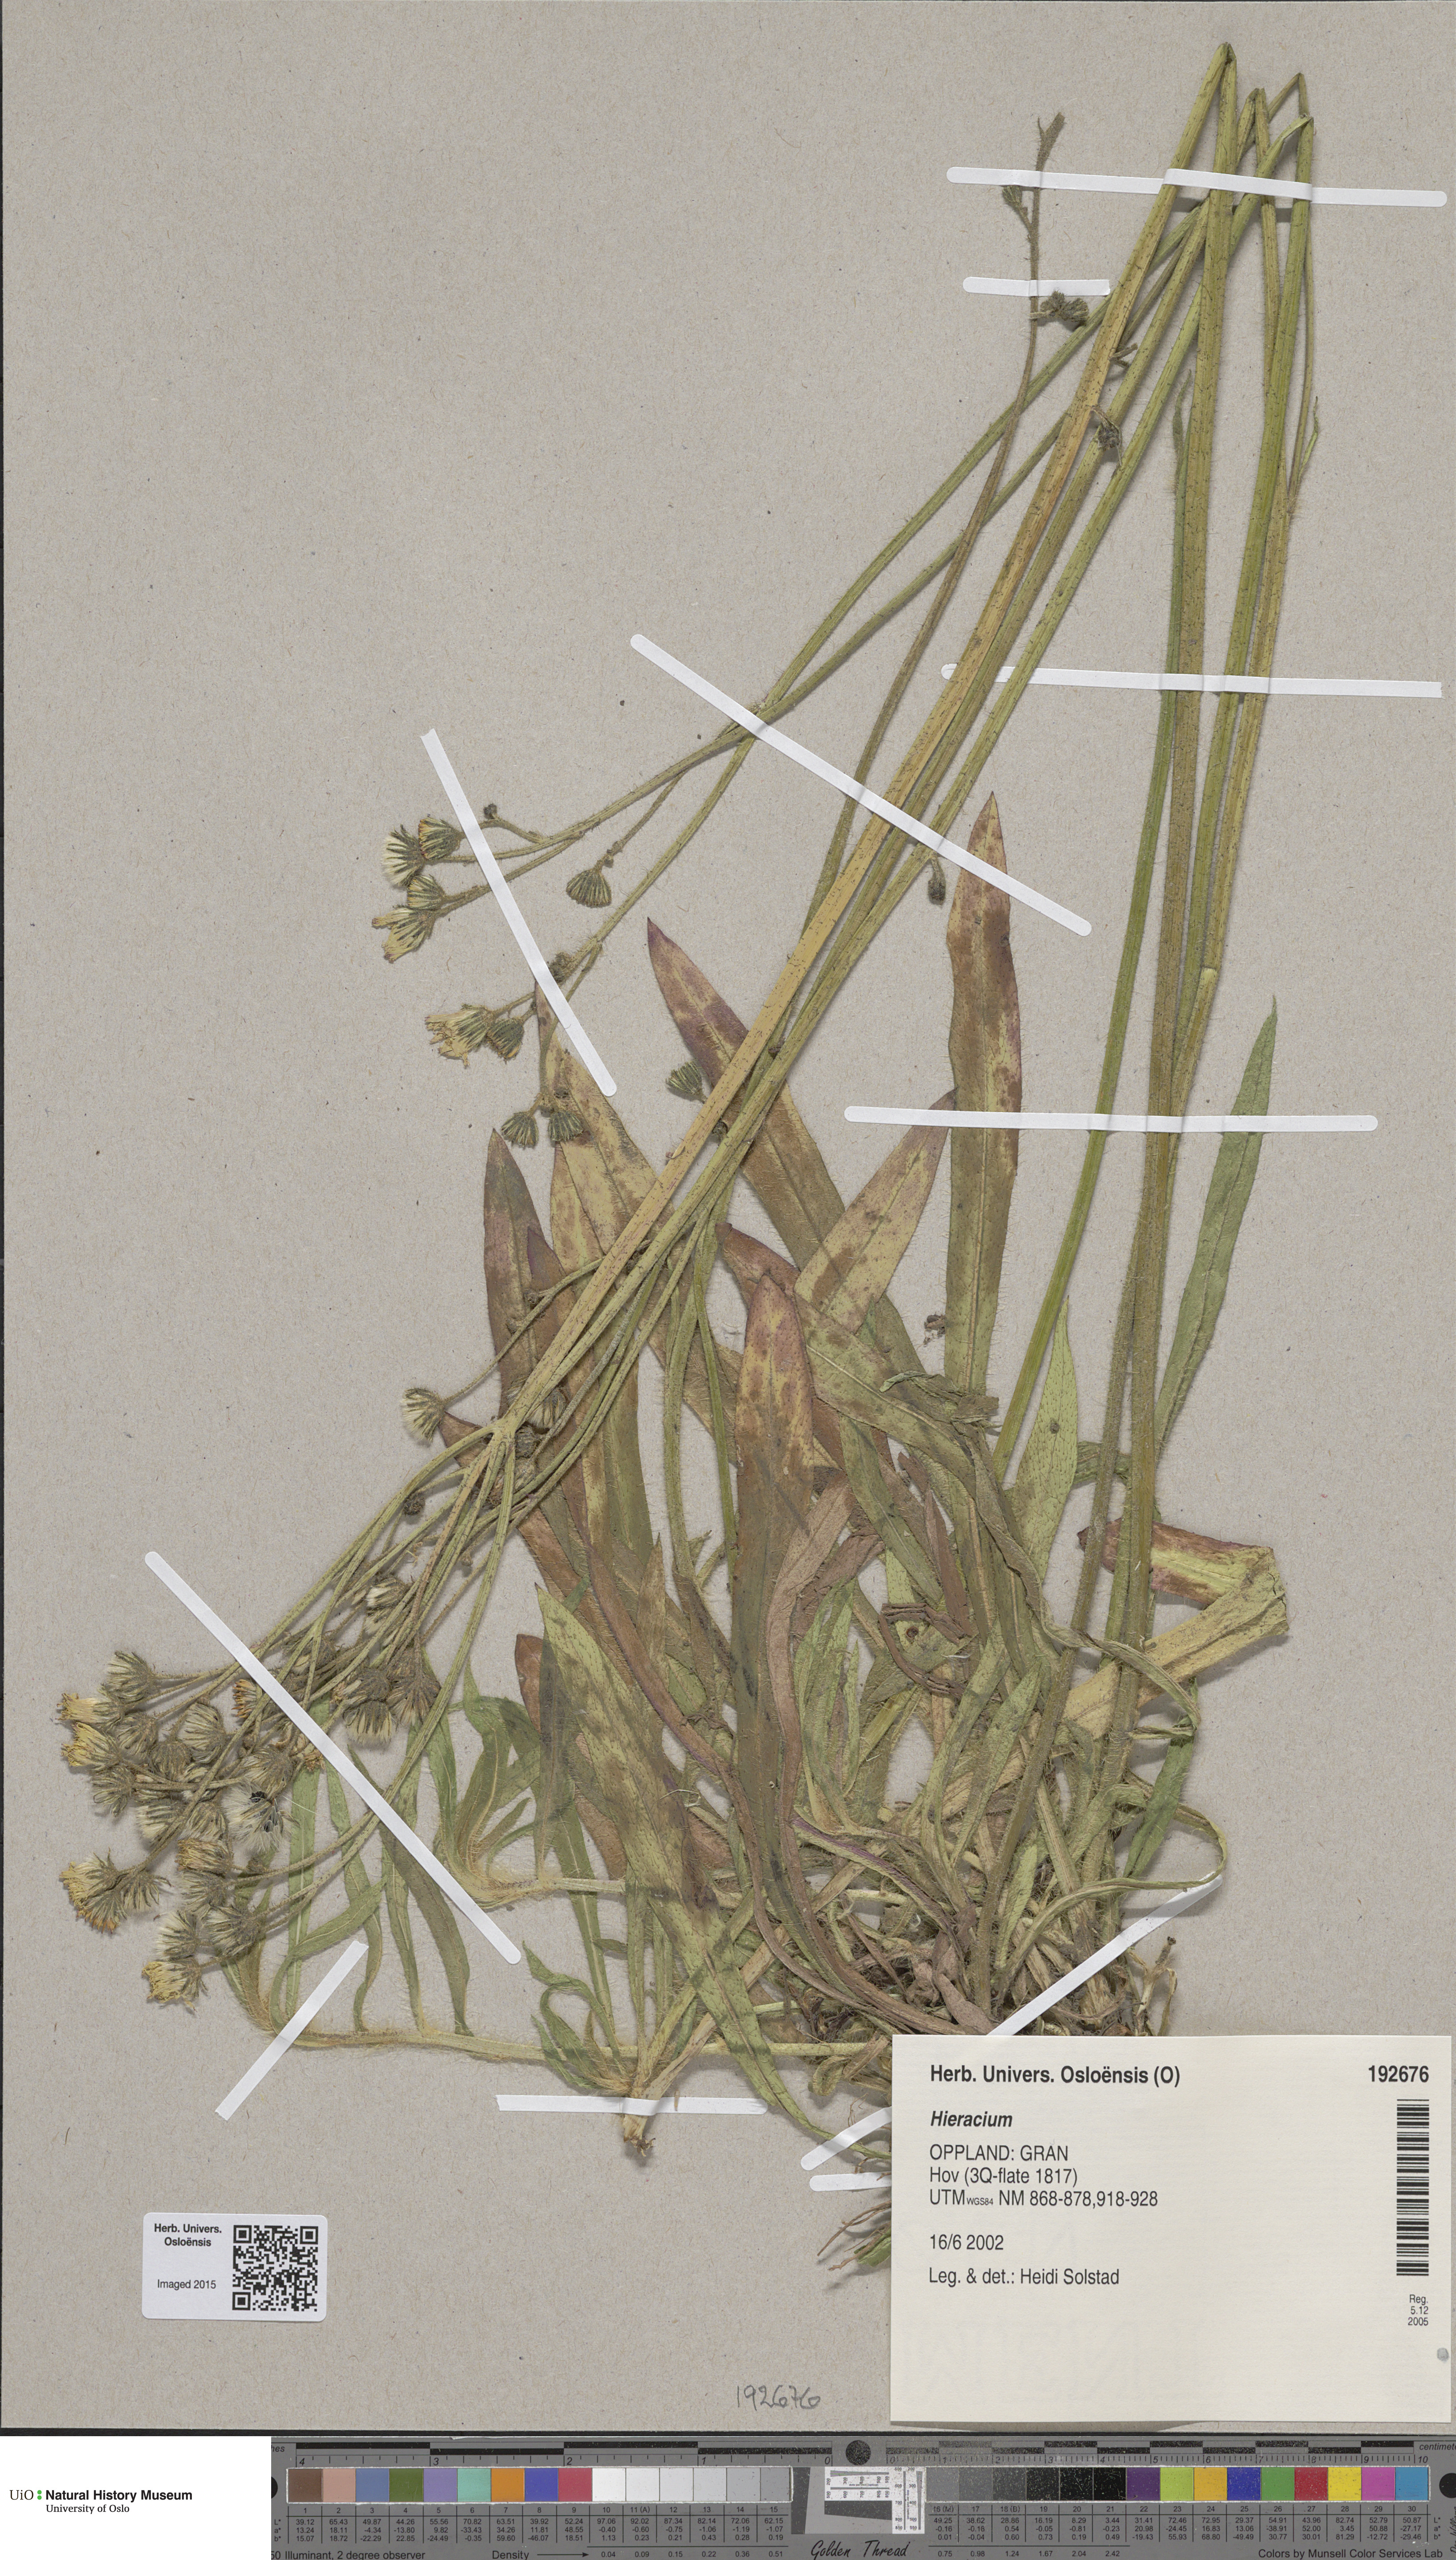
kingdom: Plantae
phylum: Tracheophyta
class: Magnoliopsida
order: Asterales
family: Asteraceae
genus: Hieracium
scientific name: Hieracium
